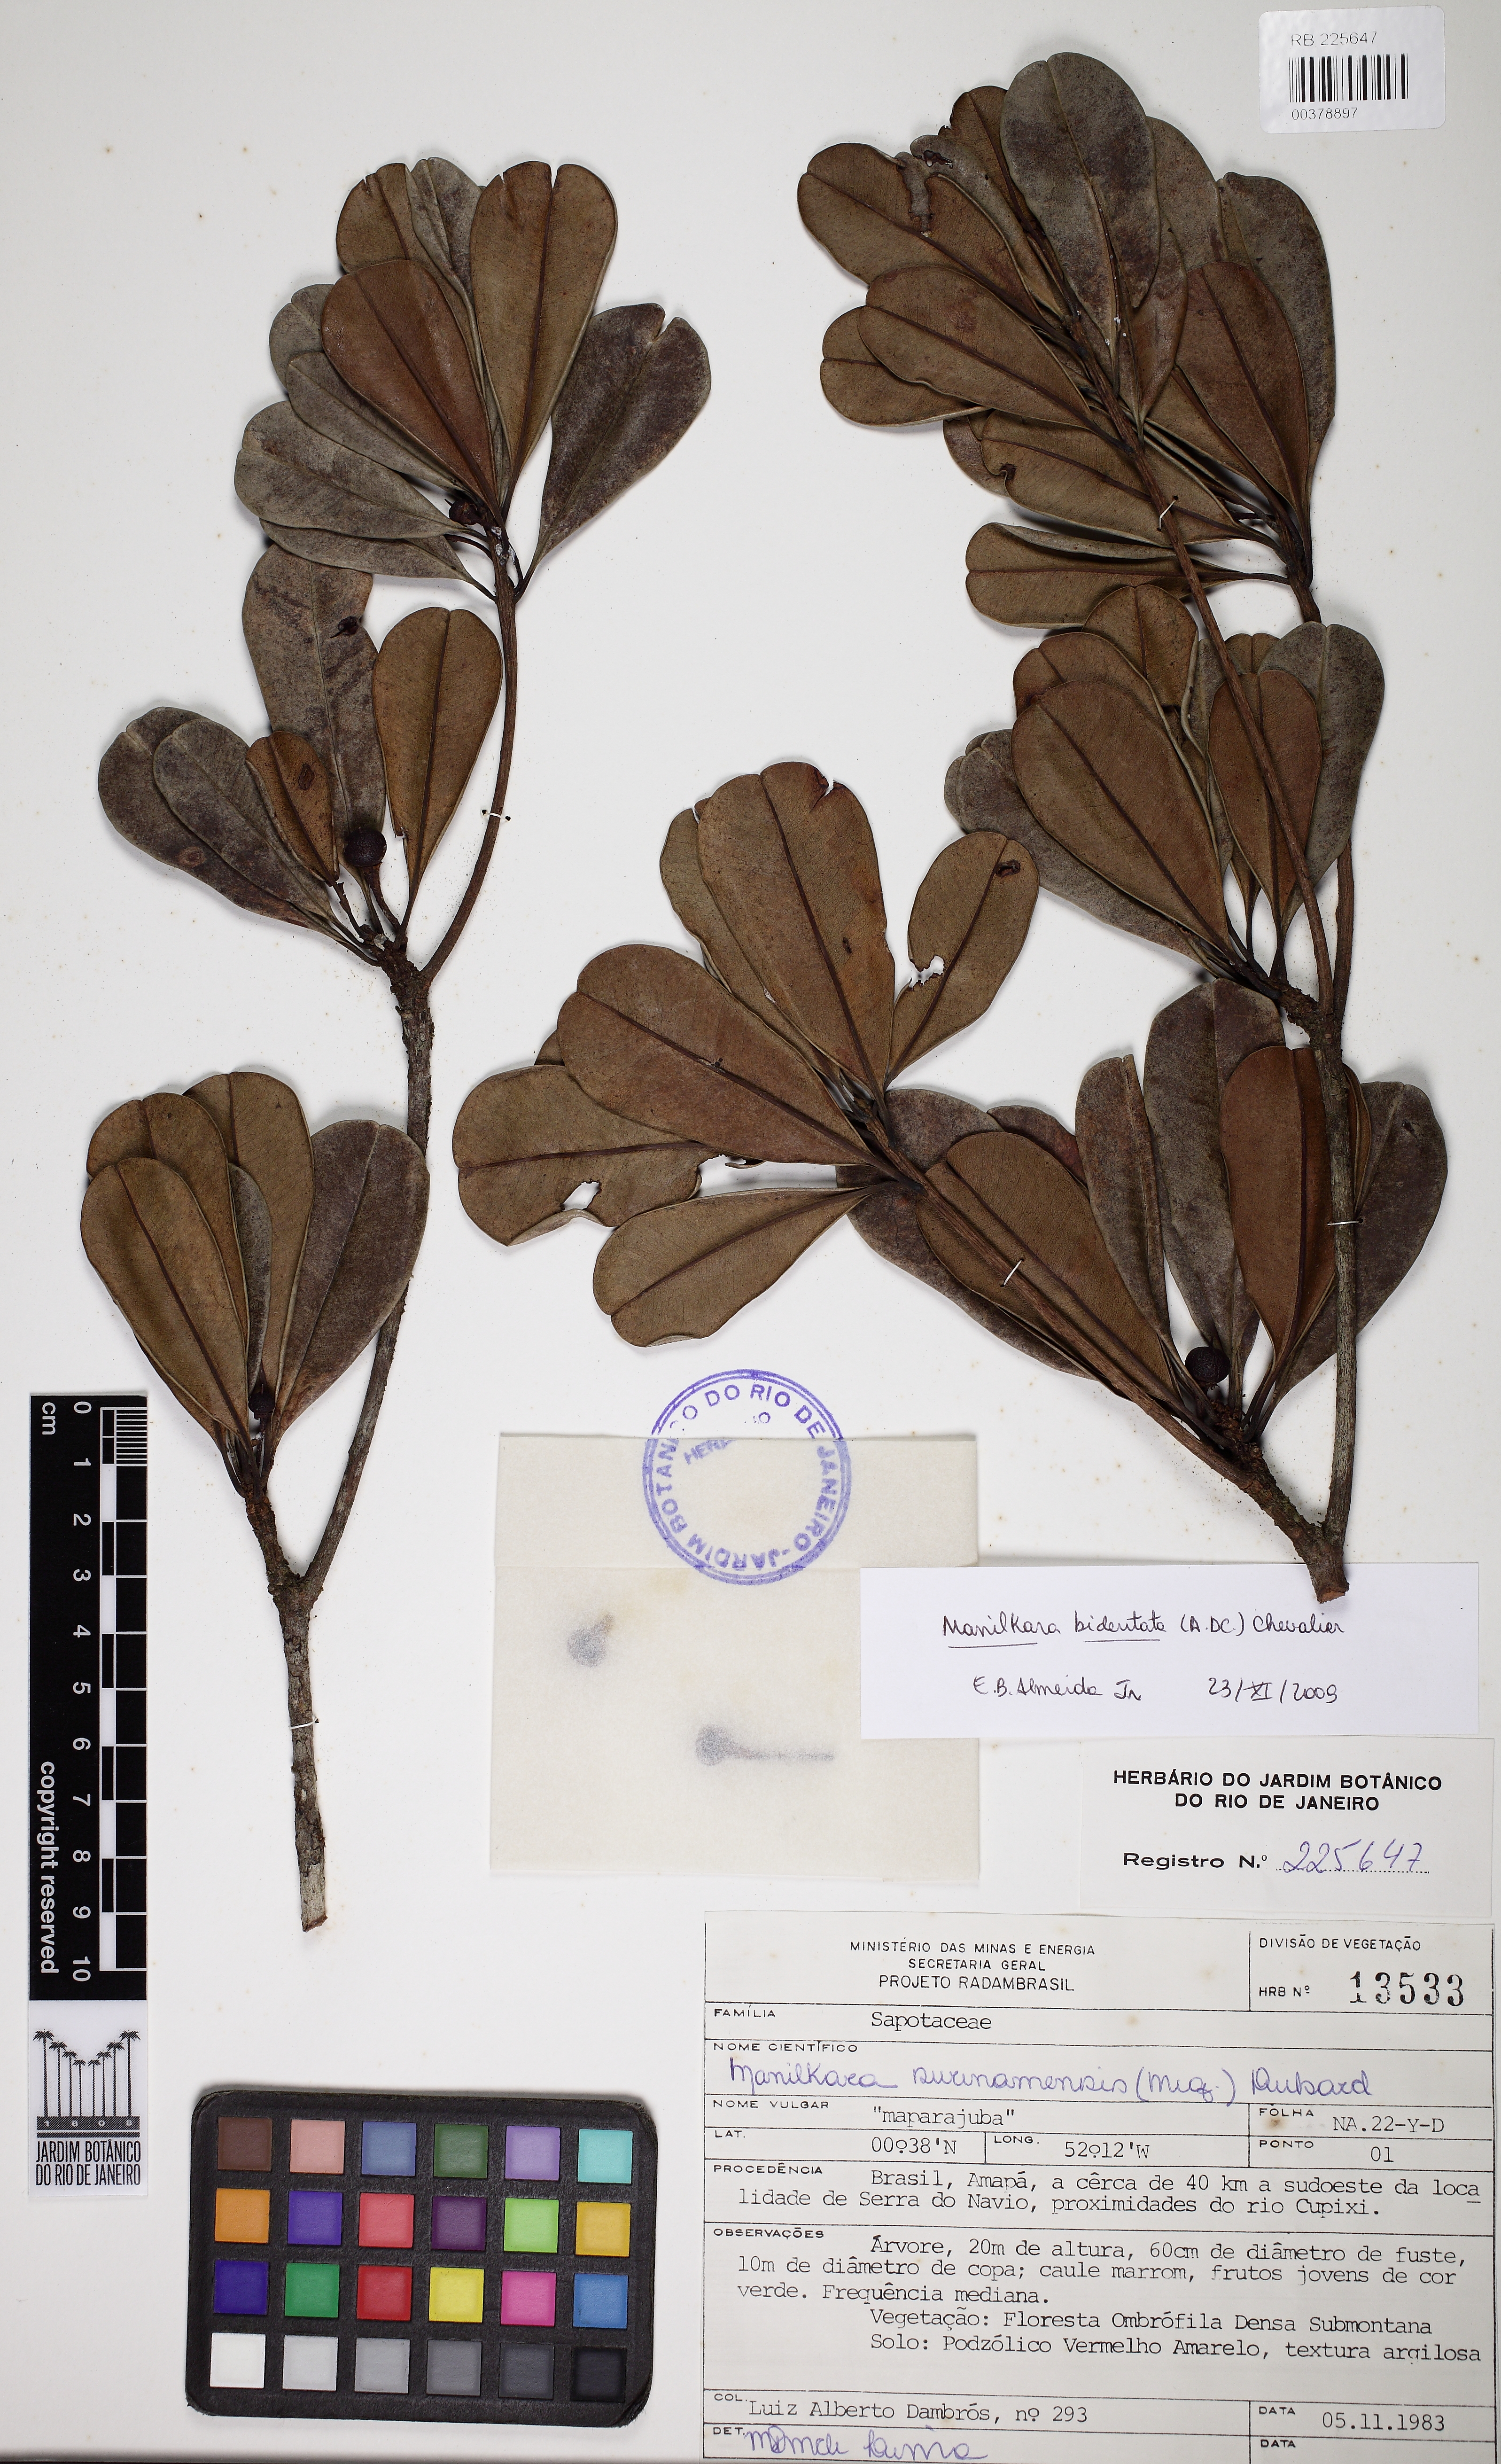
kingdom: Plantae
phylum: Tracheophyta
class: Magnoliopsida
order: Ericales
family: Sapotaceae
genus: Manilkara
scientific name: Manilkara bidentata
